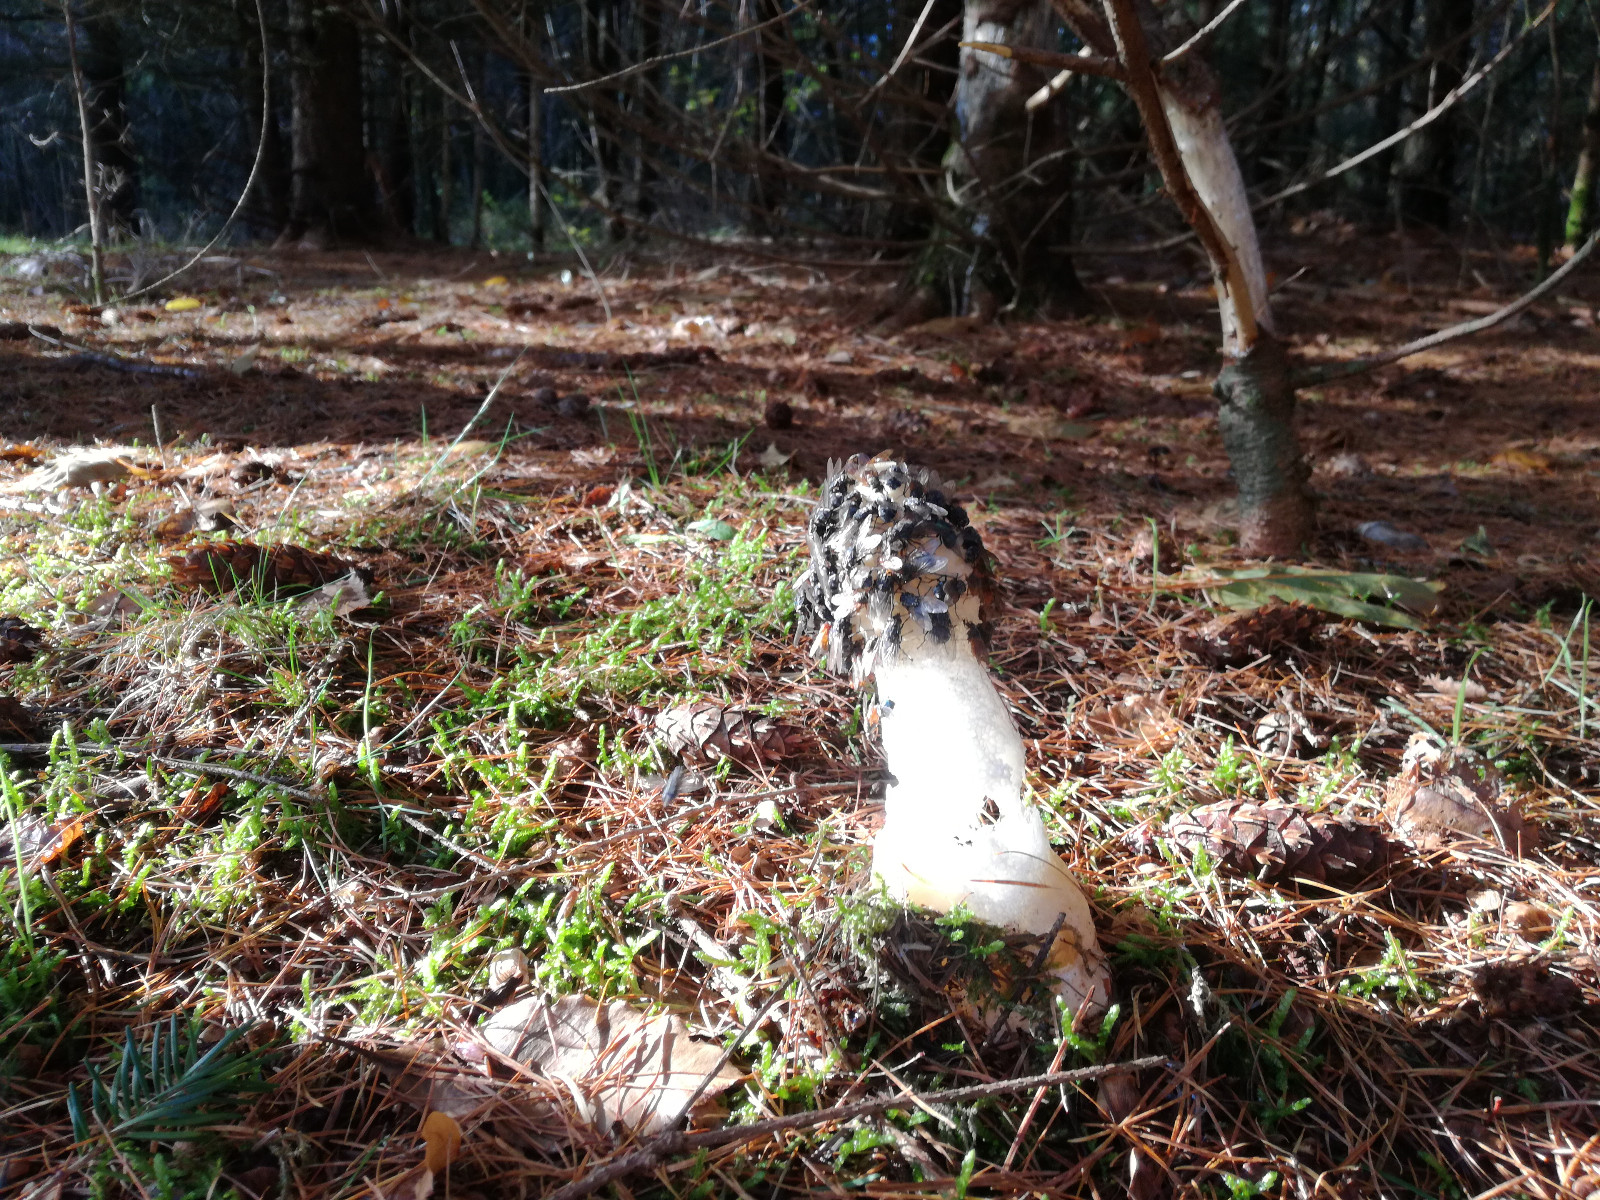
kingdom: Fungi
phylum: Basidiomycota
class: Agaricomycetes
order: Phallales
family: Phallaceae
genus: Phallus
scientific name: Phallus impudicus
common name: almindelig stinksvamp
